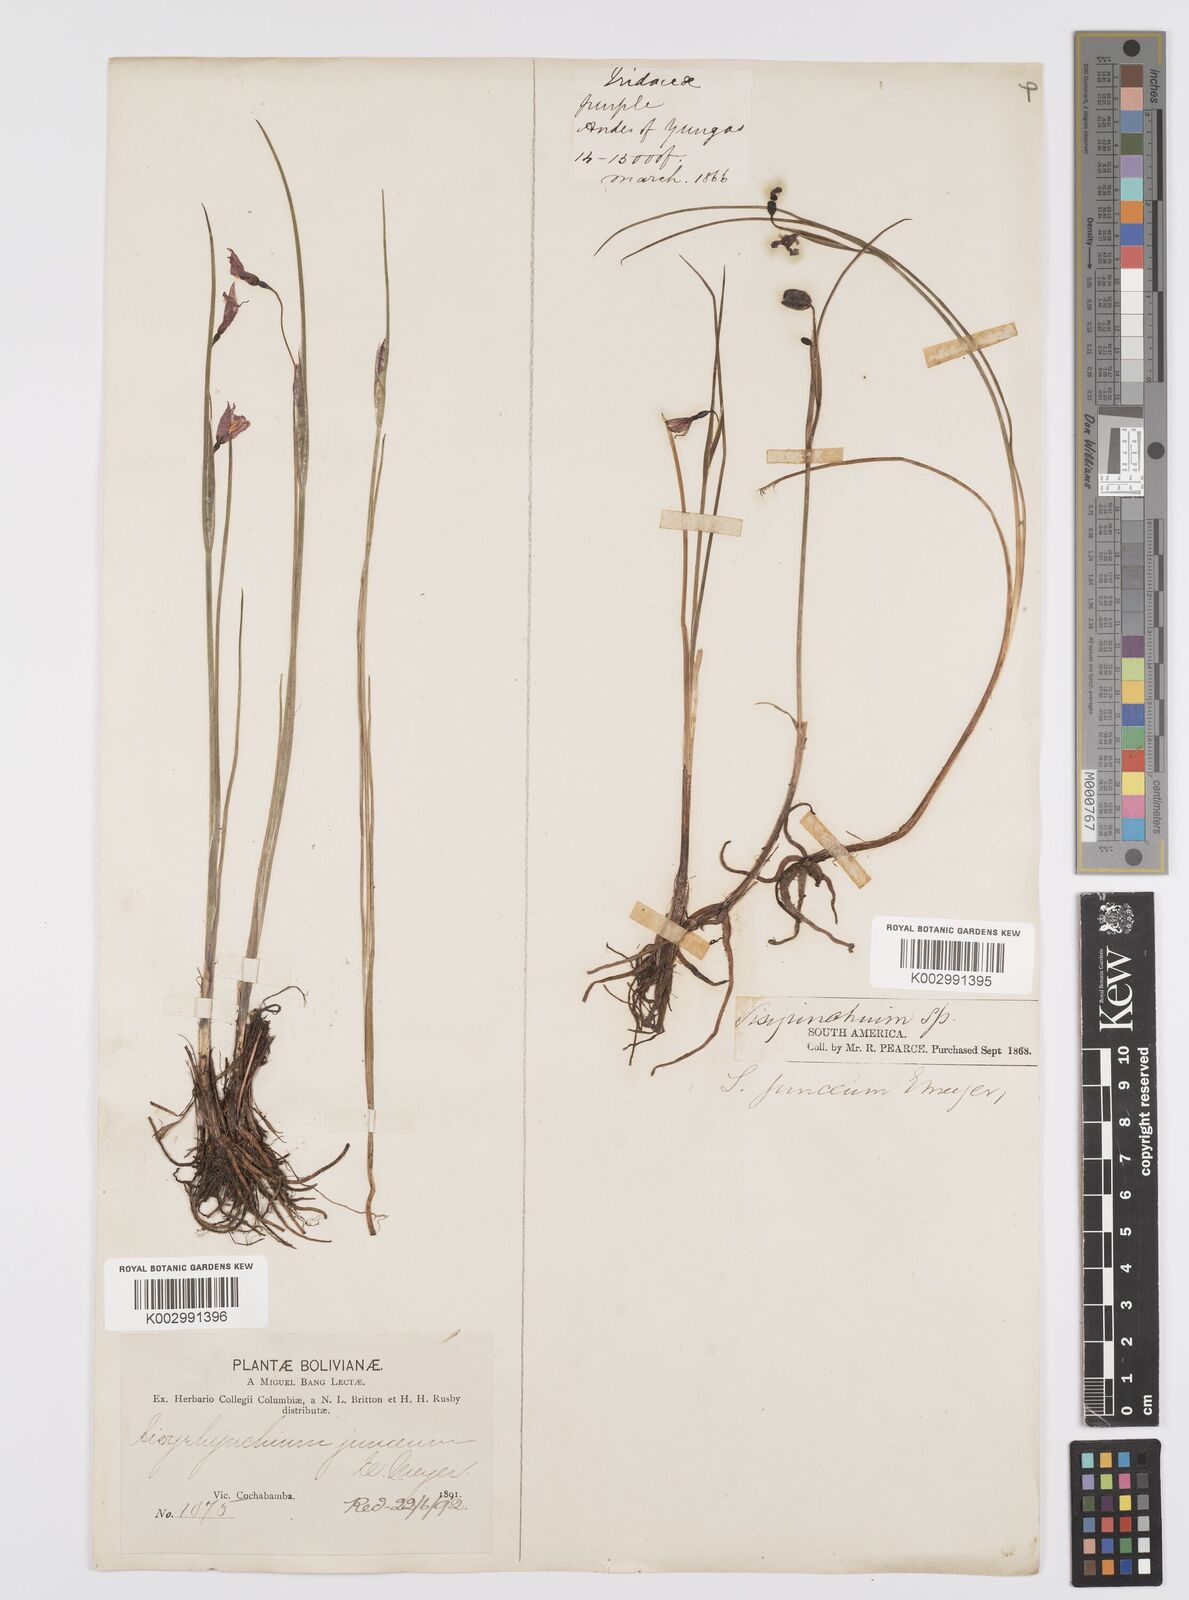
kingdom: Plantae
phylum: Tracheophyta
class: Liliopsida
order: Asparagales
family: Iridaceae
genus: Olsynium
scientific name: Olsynium junceum
